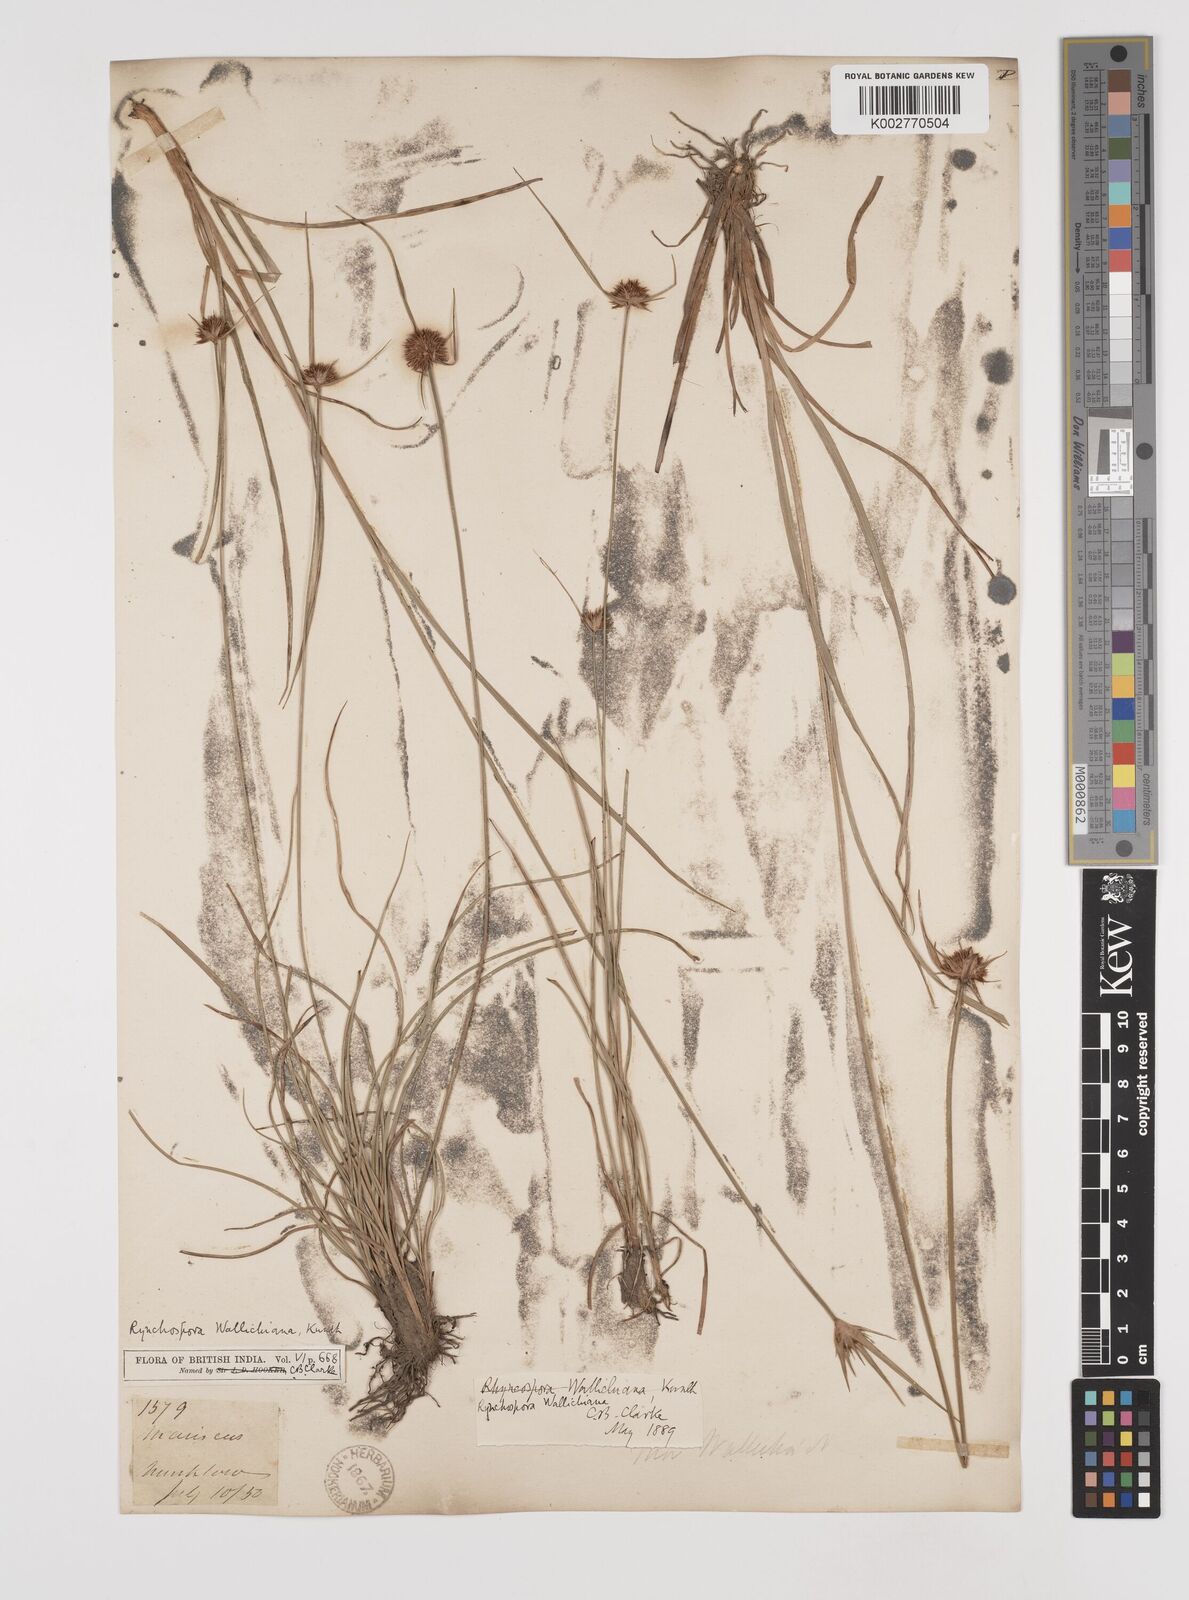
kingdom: Plantae
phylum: Tracheophyta
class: Liliopsida
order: Poales
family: Cyperaceae
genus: Rhynchospora
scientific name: Rhynchospora rubra
